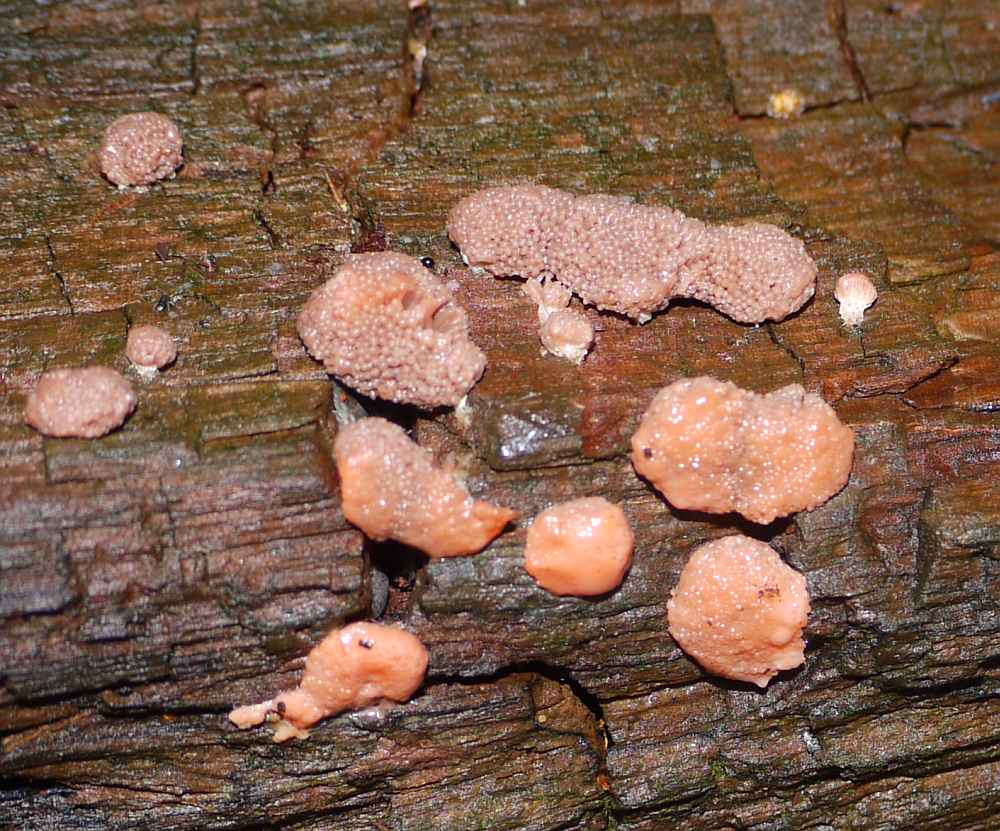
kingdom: Protozoa
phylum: Mycetozoa
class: Myxomycetes
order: Cribrariales
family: Tubiferaceae
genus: Tubifera
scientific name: Tubifera ferruginosa
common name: kanel-støvrør
